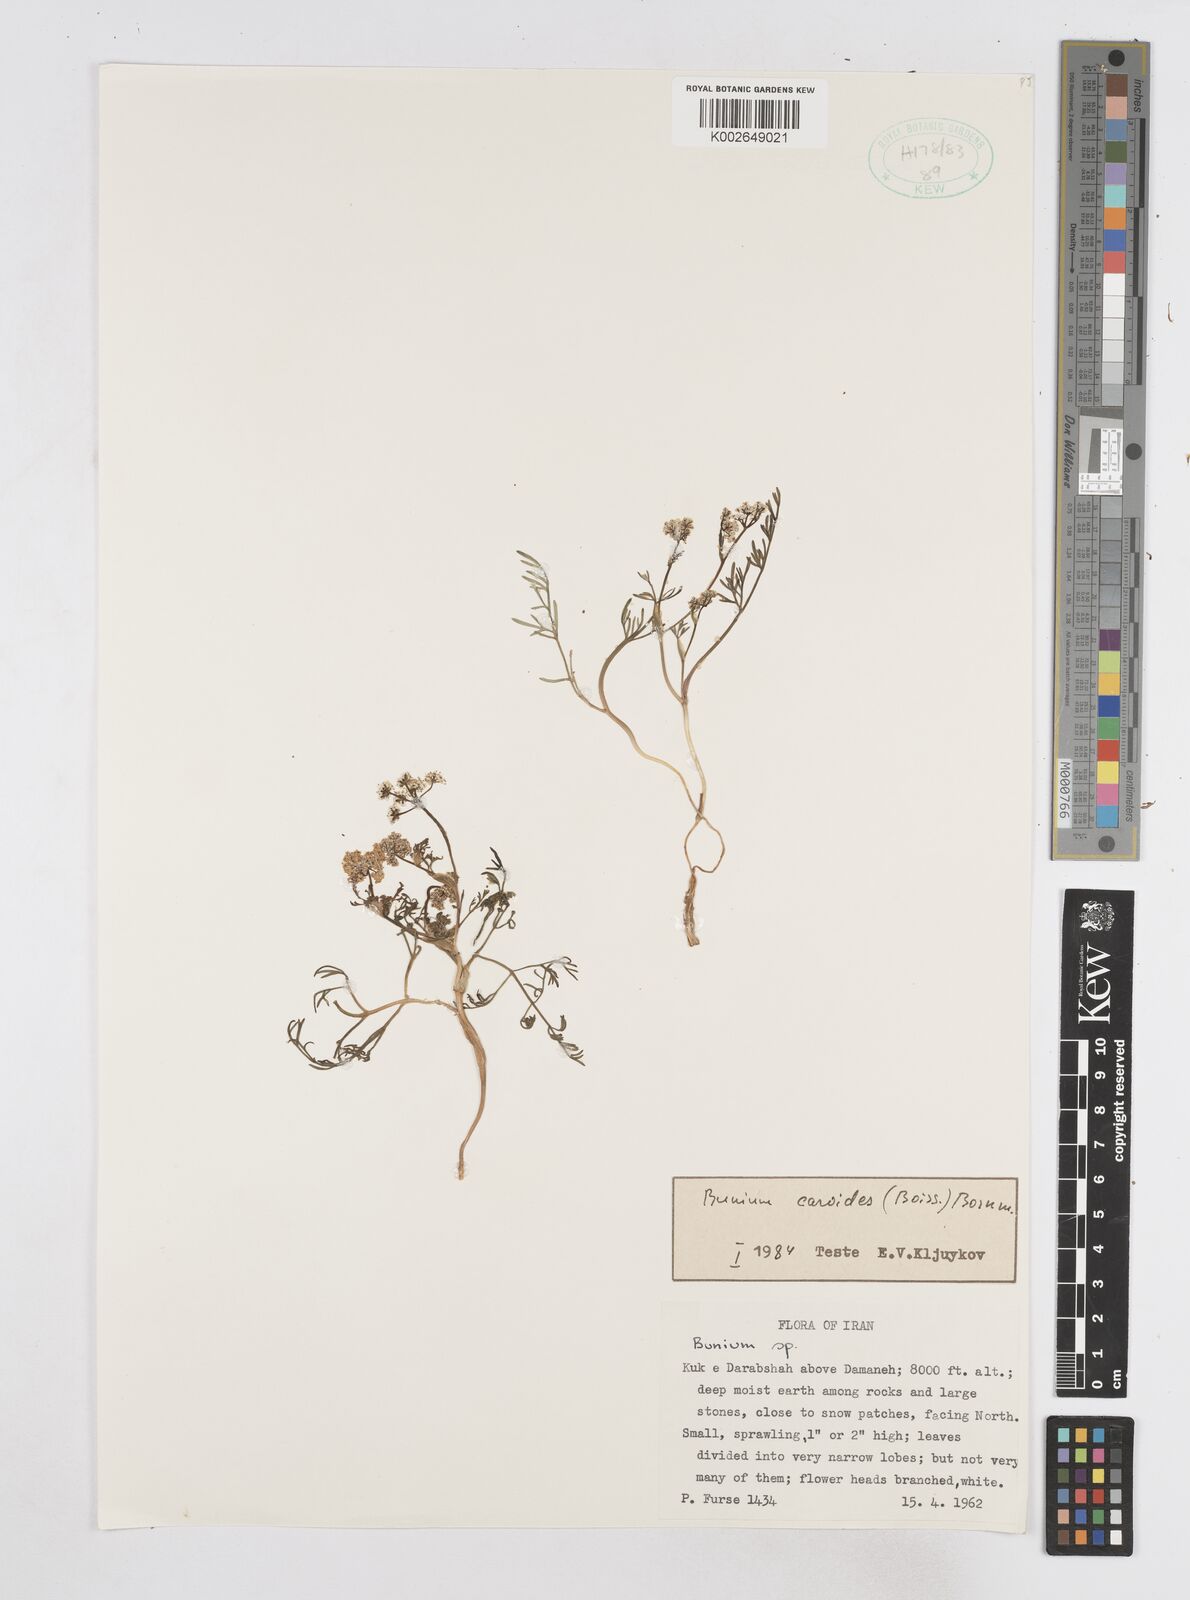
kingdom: Plantae
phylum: Tracheophyta
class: Magnoliopsida
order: Apiales
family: Apiaceae
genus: Elwendia
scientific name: Elwendia caroides
